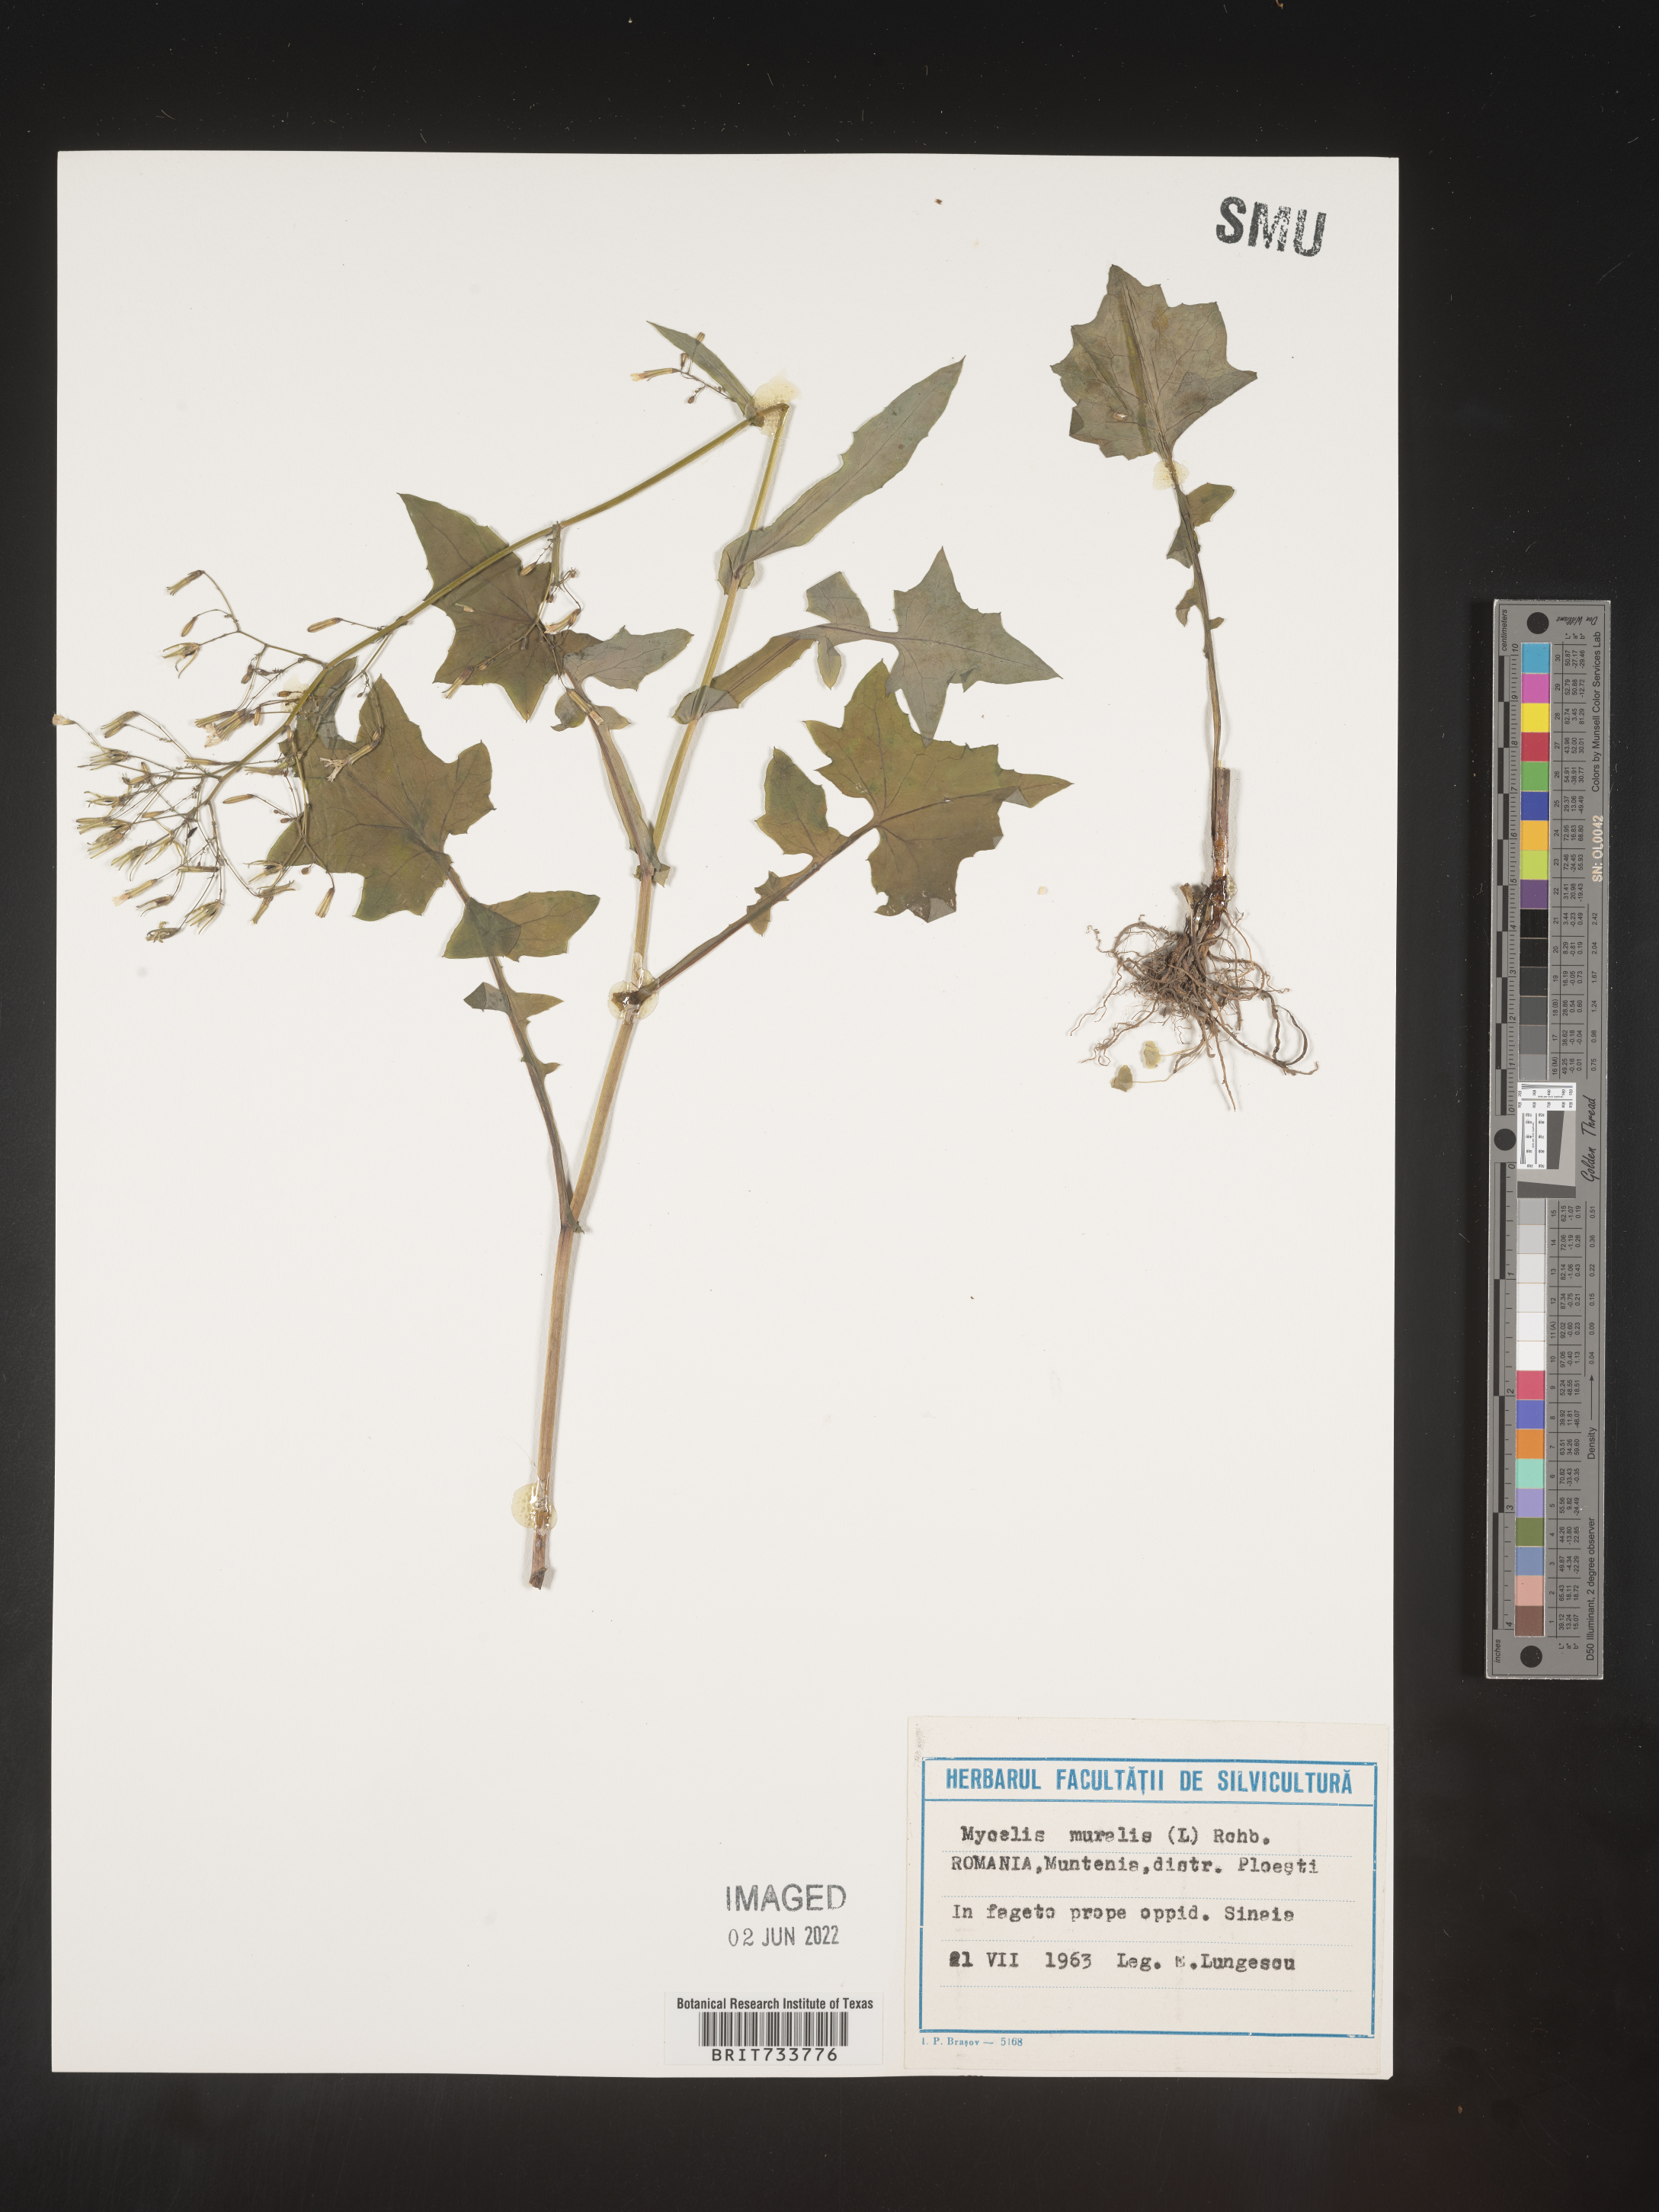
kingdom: Plantae
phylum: Tracheophyta
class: Magnoliopsida
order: Asterales
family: Asteraceae
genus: Mycelis
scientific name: Mycelis
